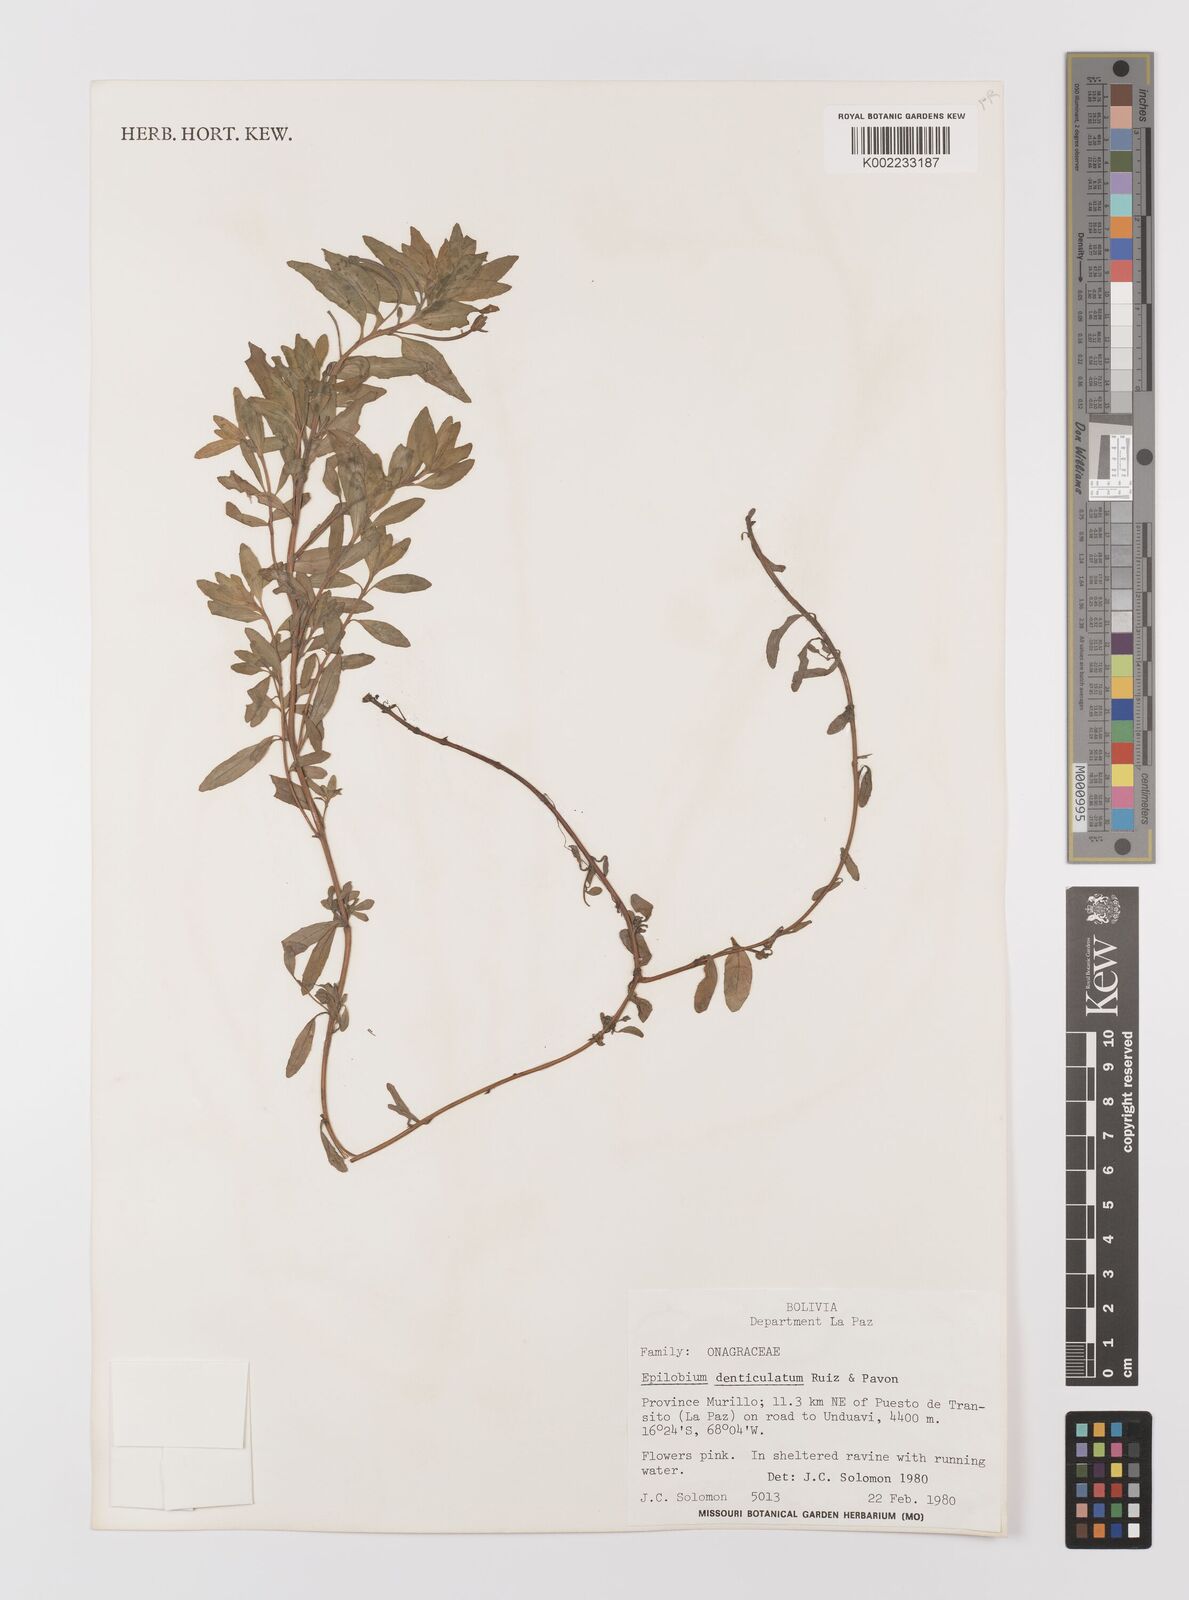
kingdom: Plantae
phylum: Tracheophyta
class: Magnoliopsida
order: Myrtales
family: Onagraceae
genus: Epilobium
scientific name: Epilobium denticulatum
